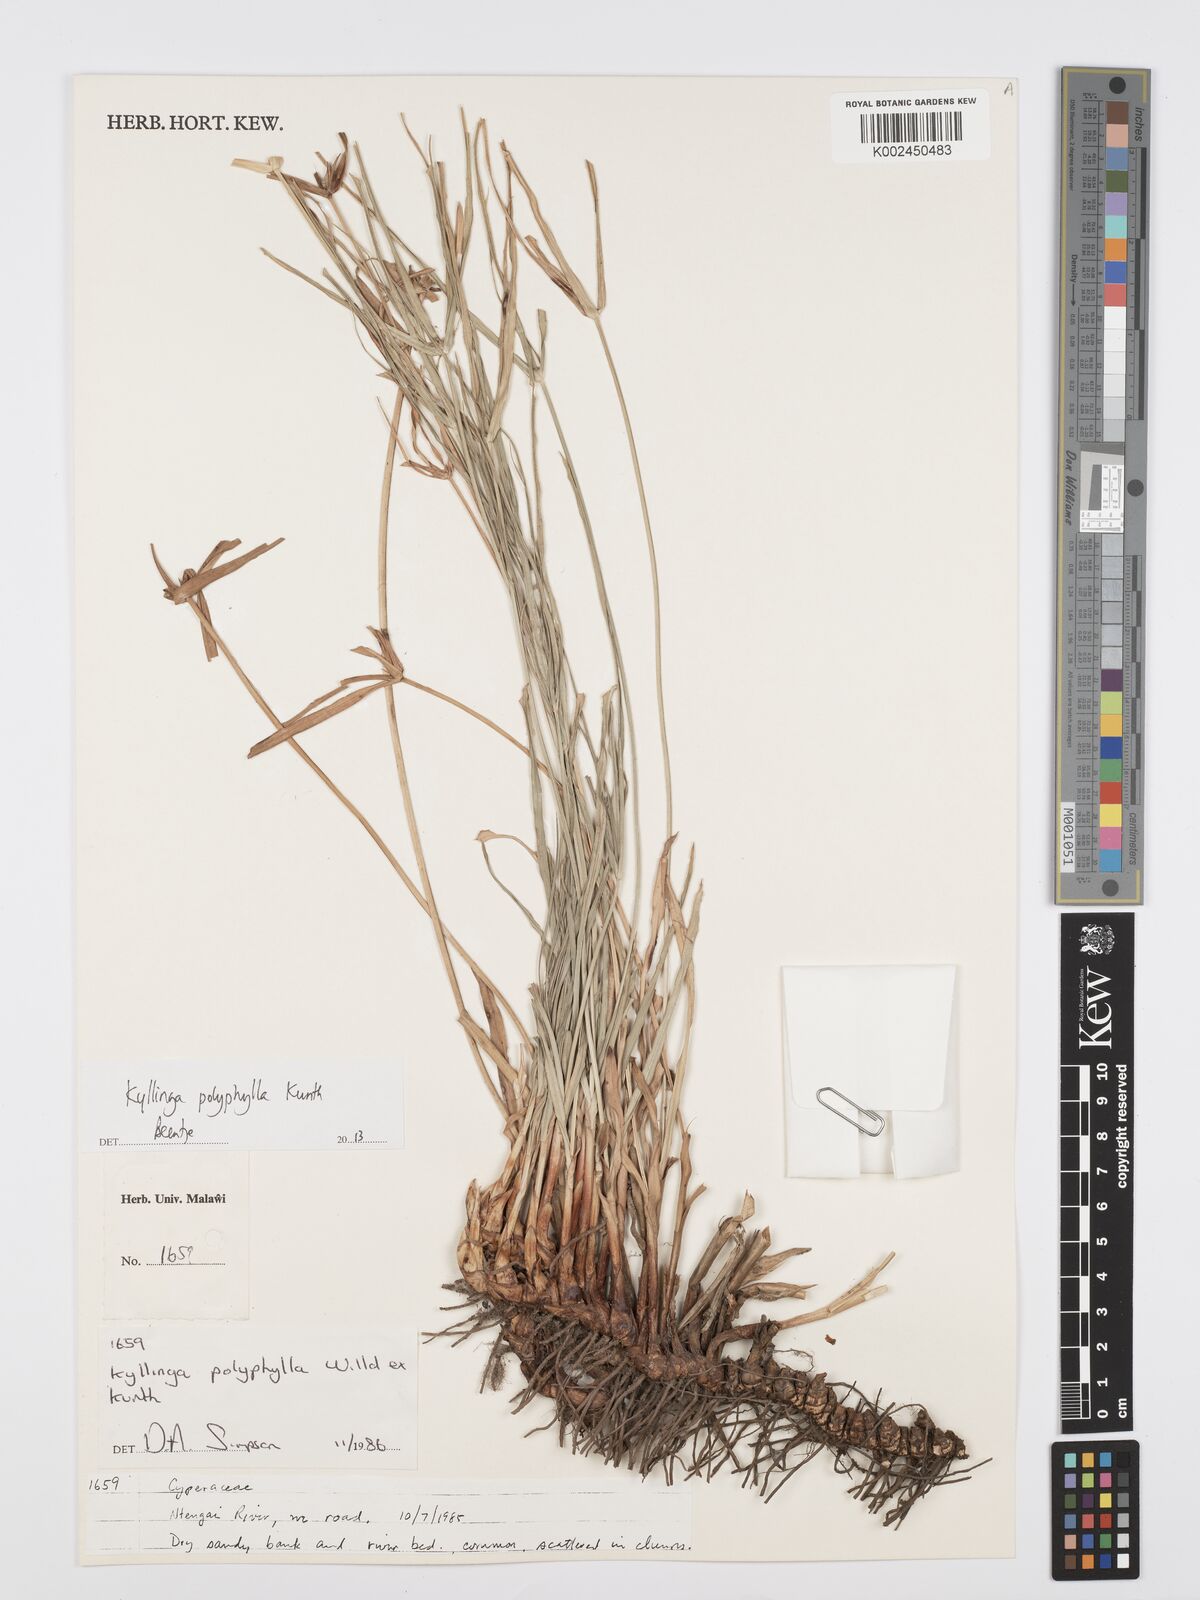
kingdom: Plantae
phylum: Tracheophyta
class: Liliopsida
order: Poales
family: Cyperaceae
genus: Cyperus
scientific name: Cyperus bulbosus
